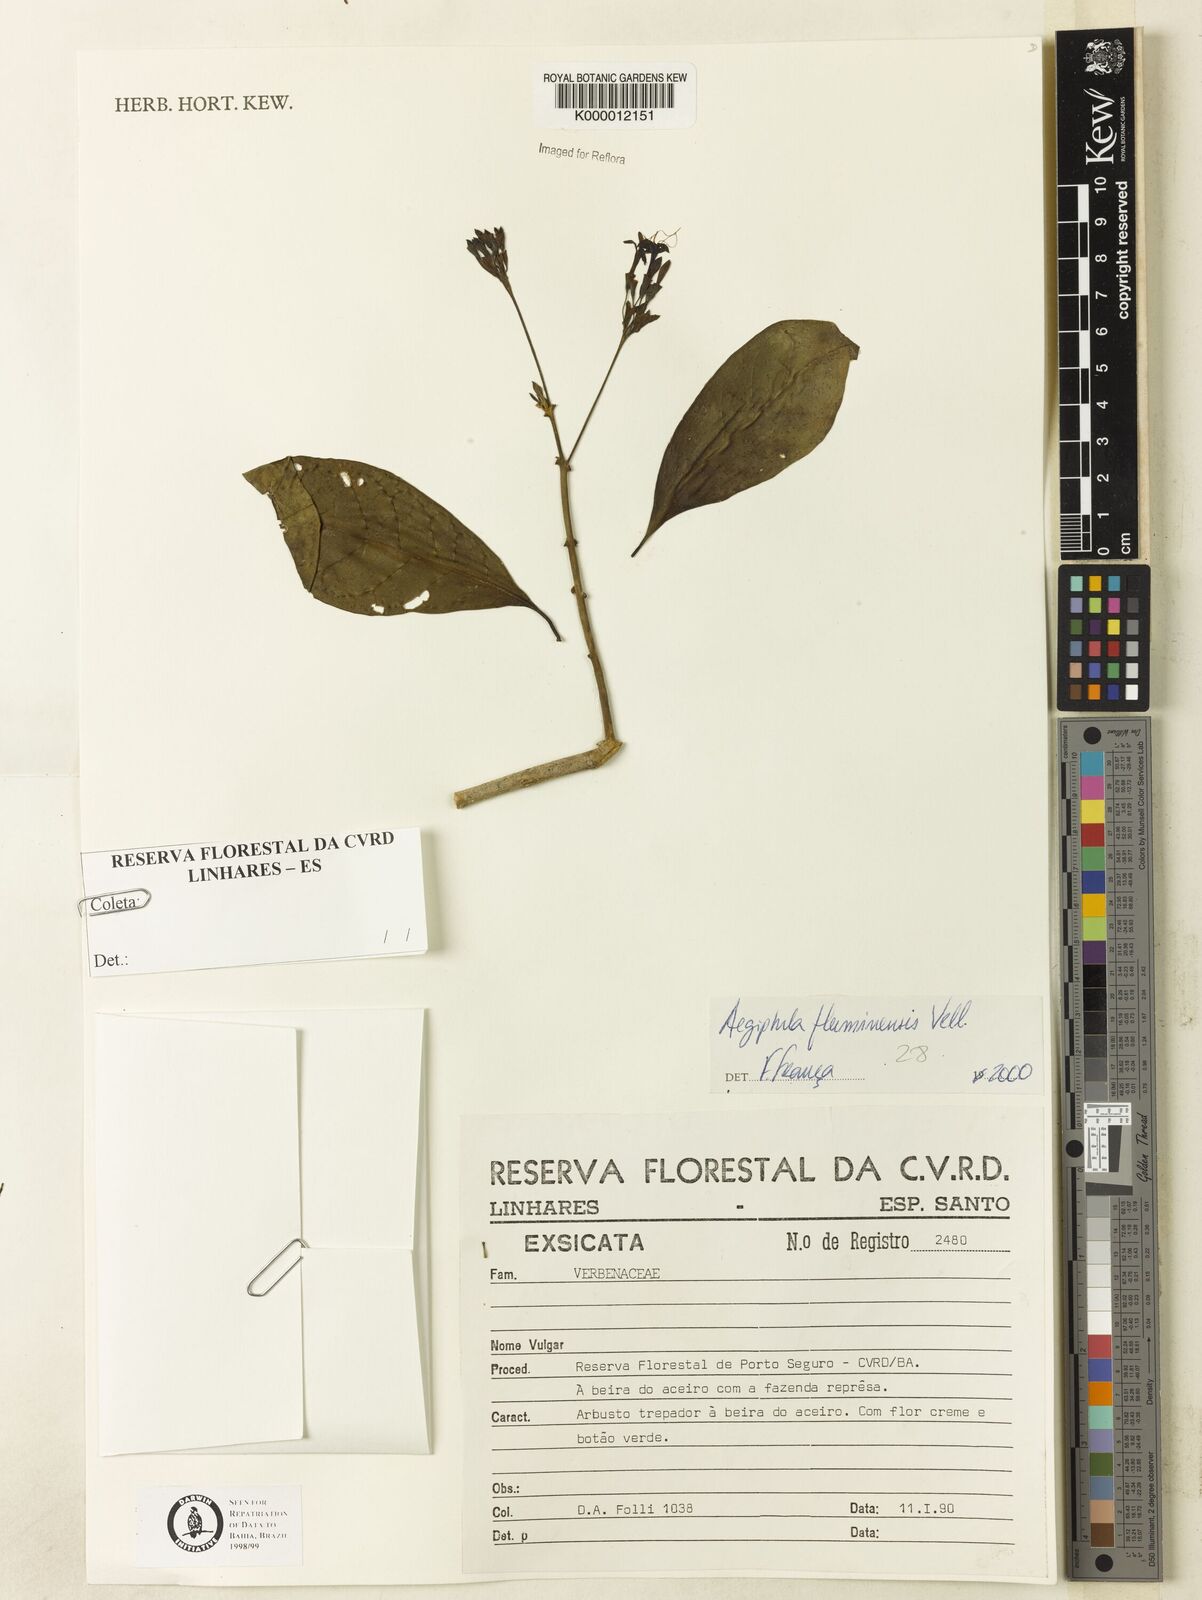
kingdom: Plantae
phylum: Tracheophyta
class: Magnoliopsida
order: Lamiales
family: Lamiaceae
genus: Aegiphila
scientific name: Aegiphila fluminensis
